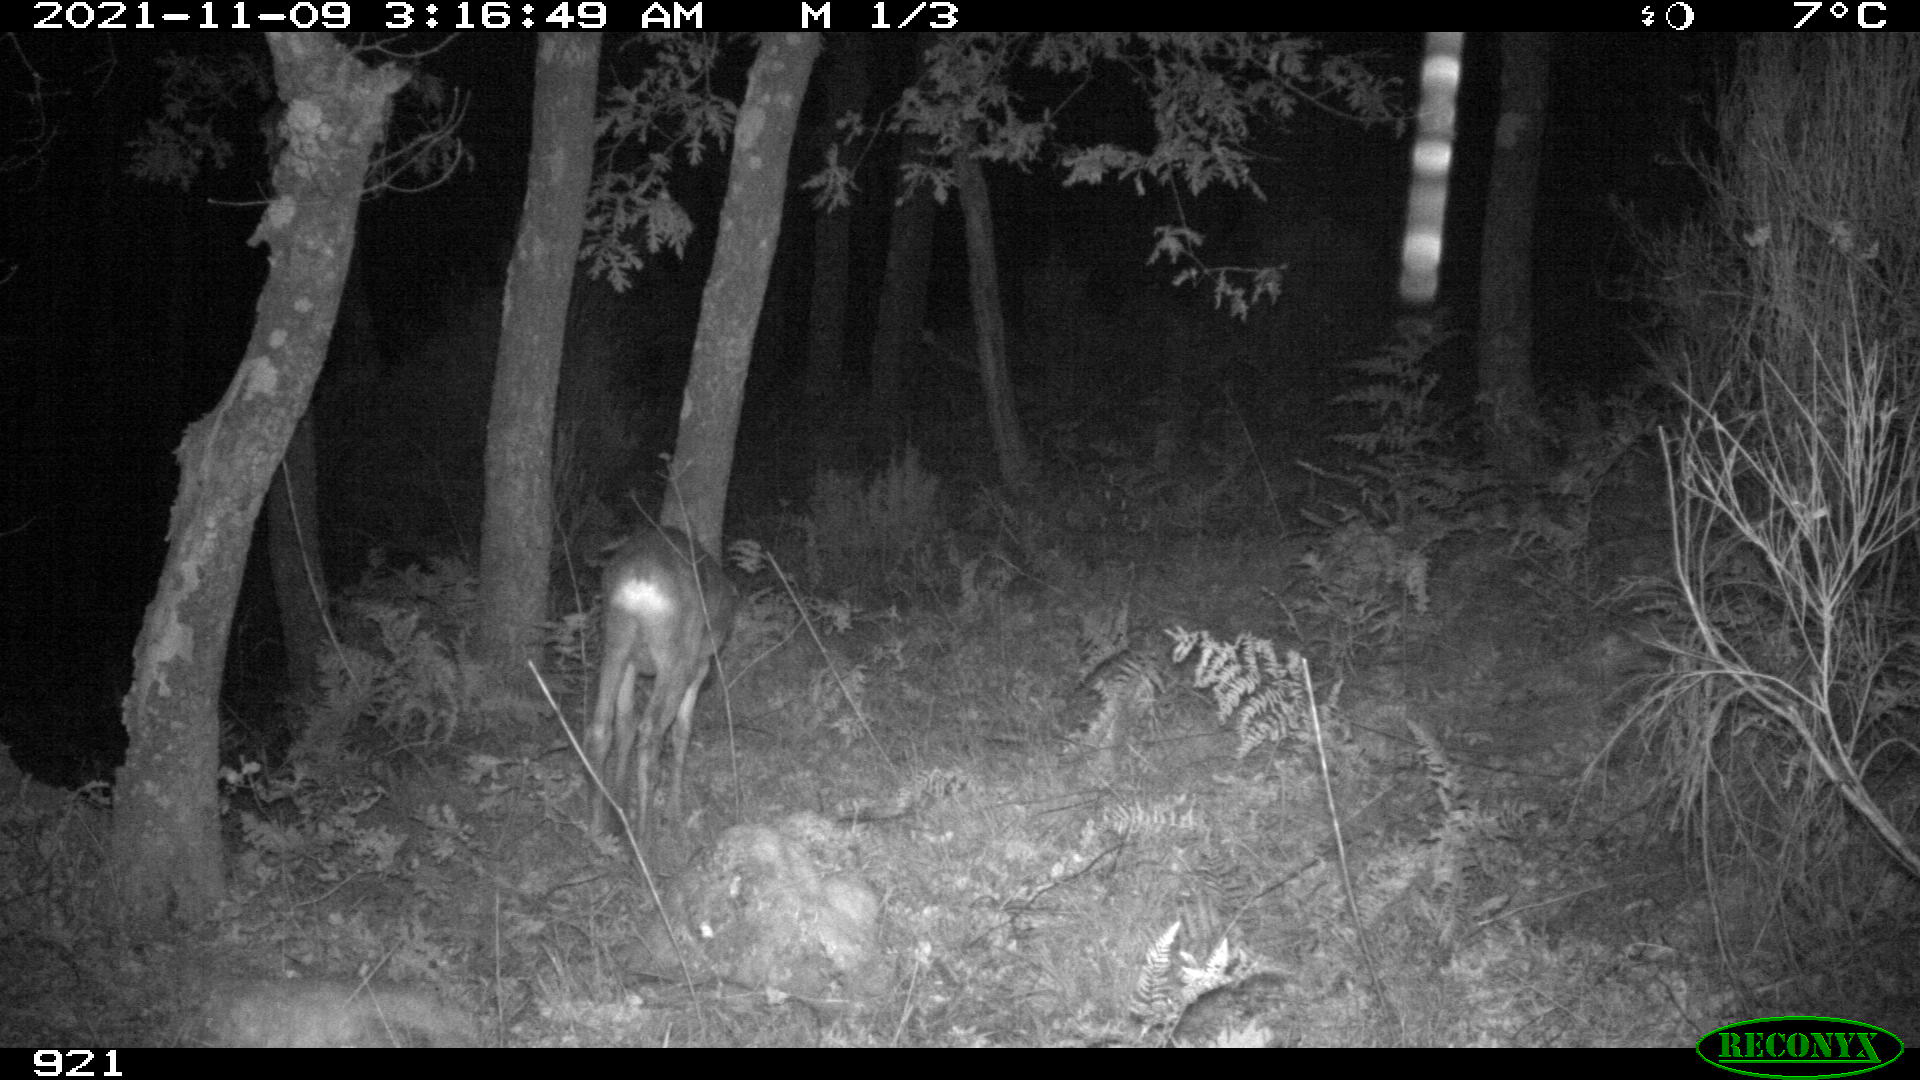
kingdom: Animalia
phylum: Chordata
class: Mammalia
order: Artiodactyla
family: Cervidae
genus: Capreolus
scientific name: Capreolus capreolus
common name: Western roe deer
